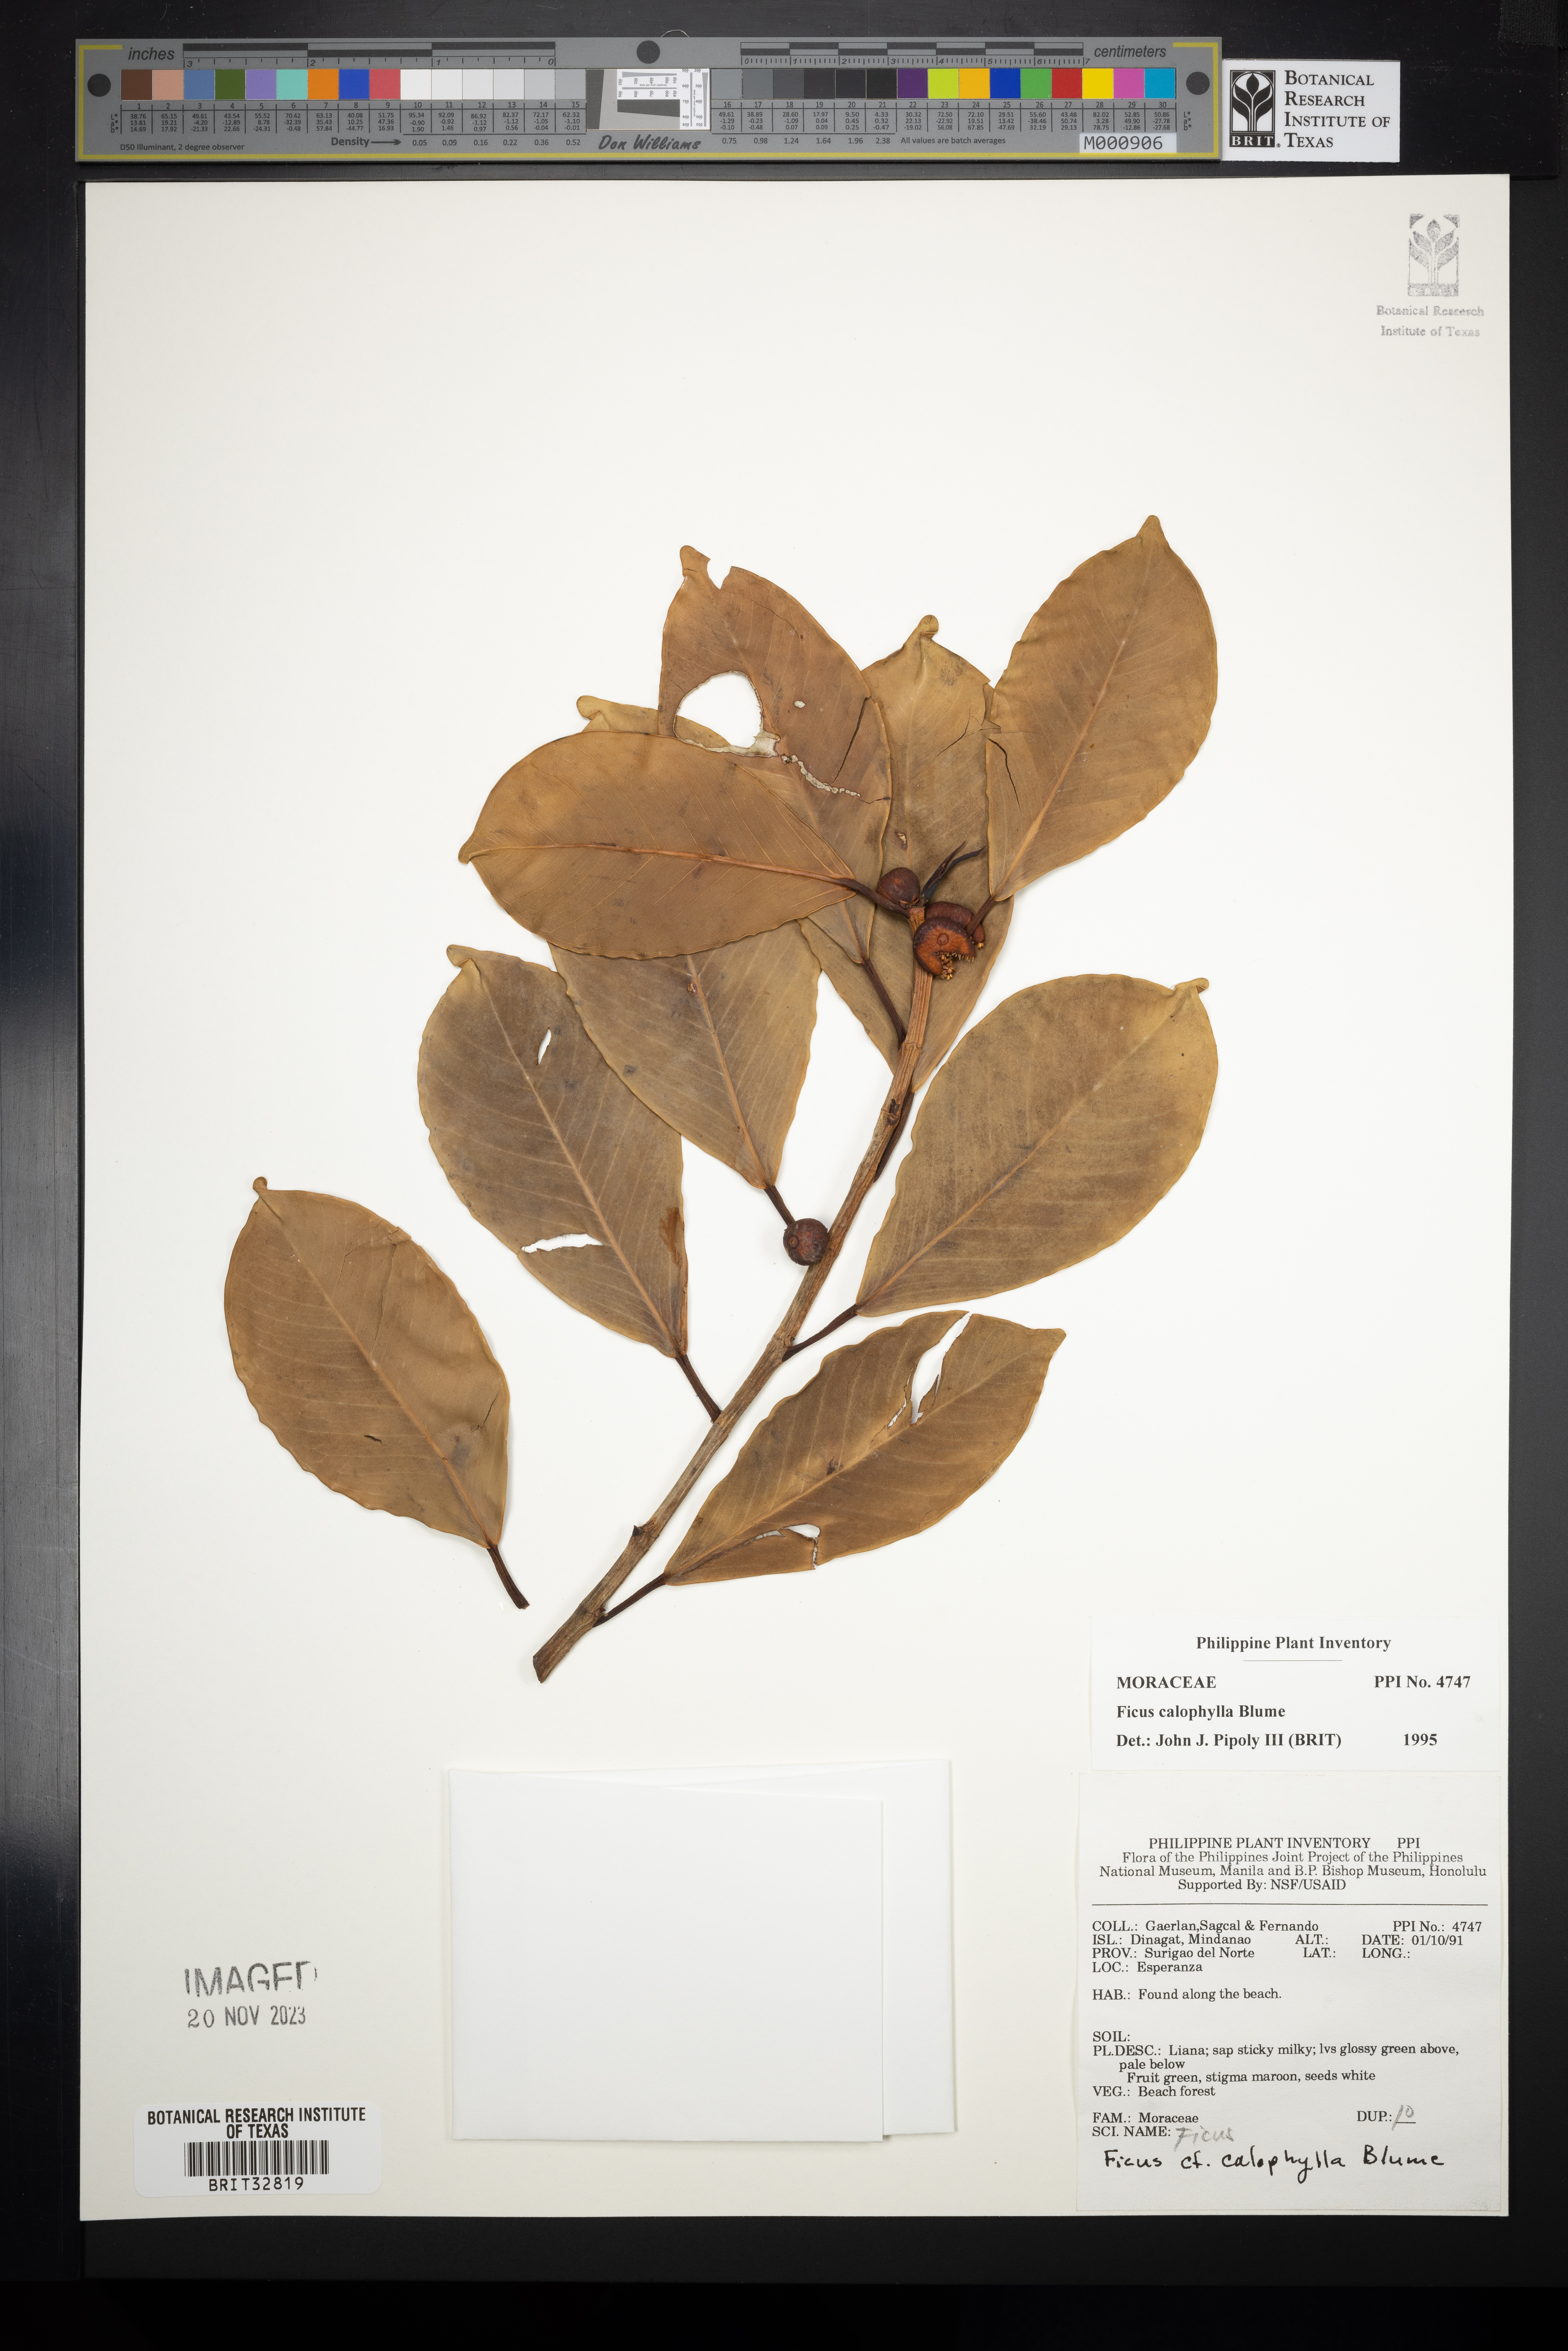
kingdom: Plantae
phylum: Tracheophyta
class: Magnoliopsida
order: Rosales
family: Moraceae
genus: Ficus
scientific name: Ficus callophylla
